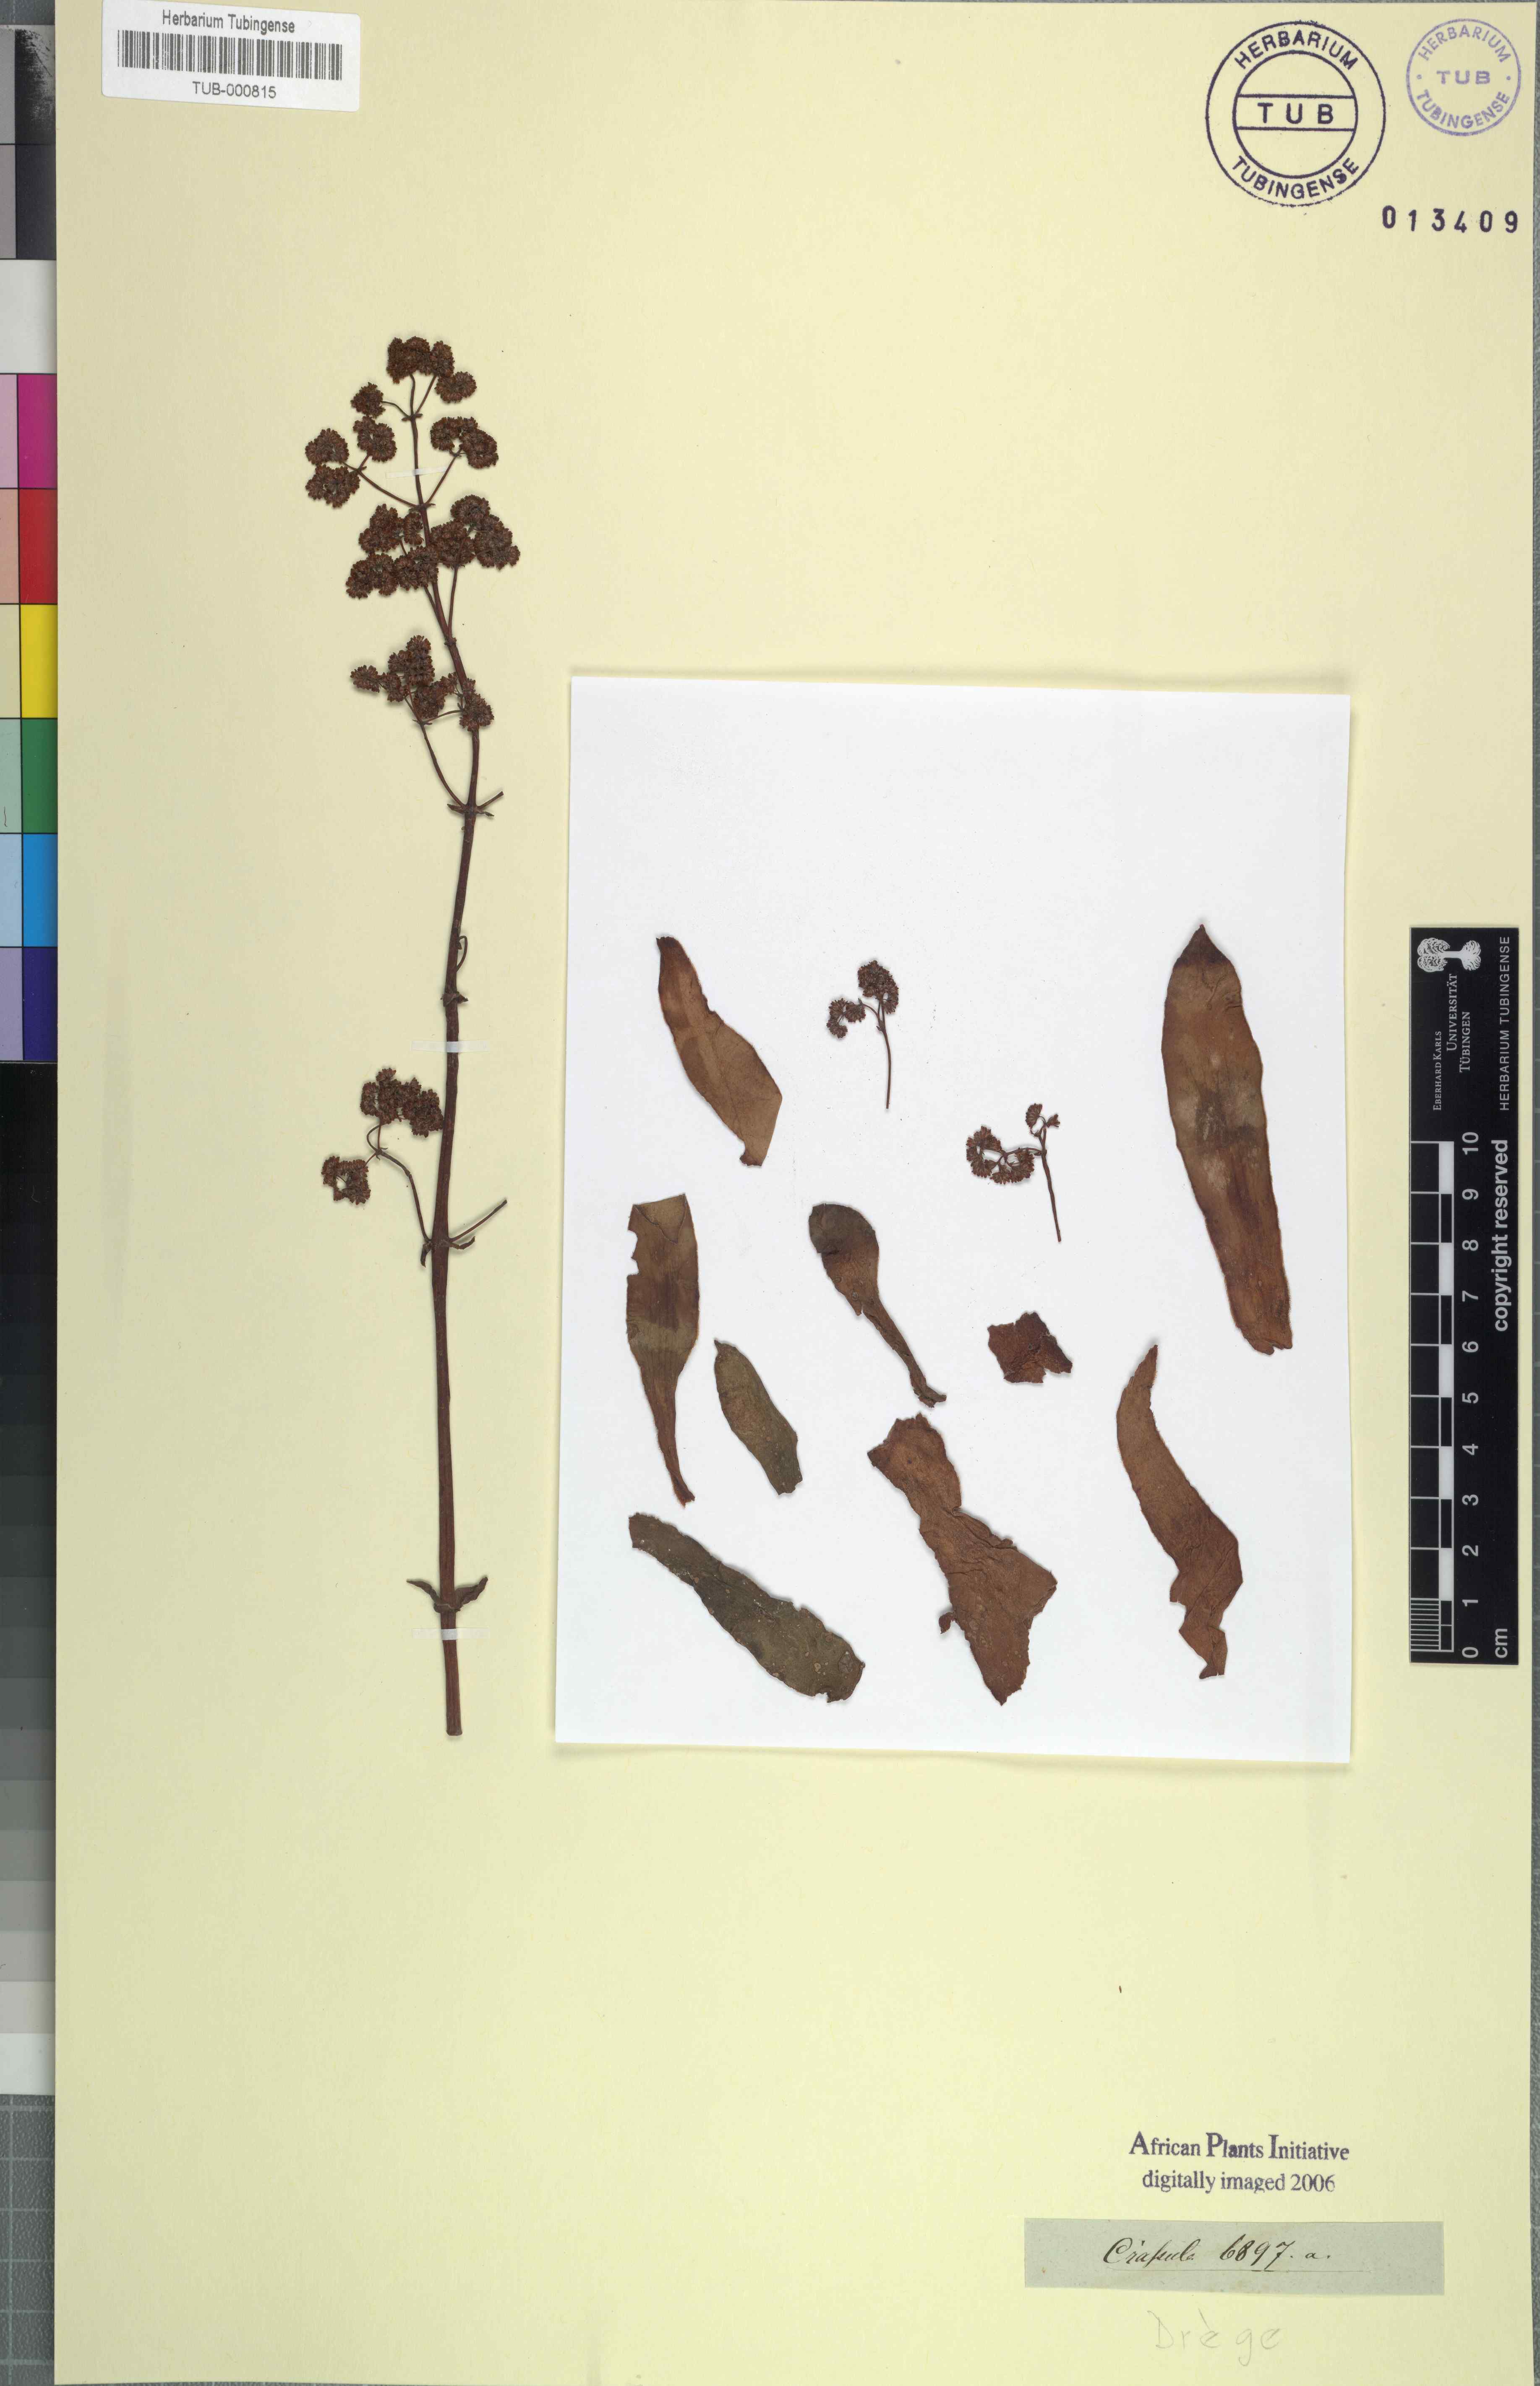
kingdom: Plantae
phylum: Tracheophyta
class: Magnoliopsida
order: Saxifragales
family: Crassulaceae
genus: Crassula
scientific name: Crassula
